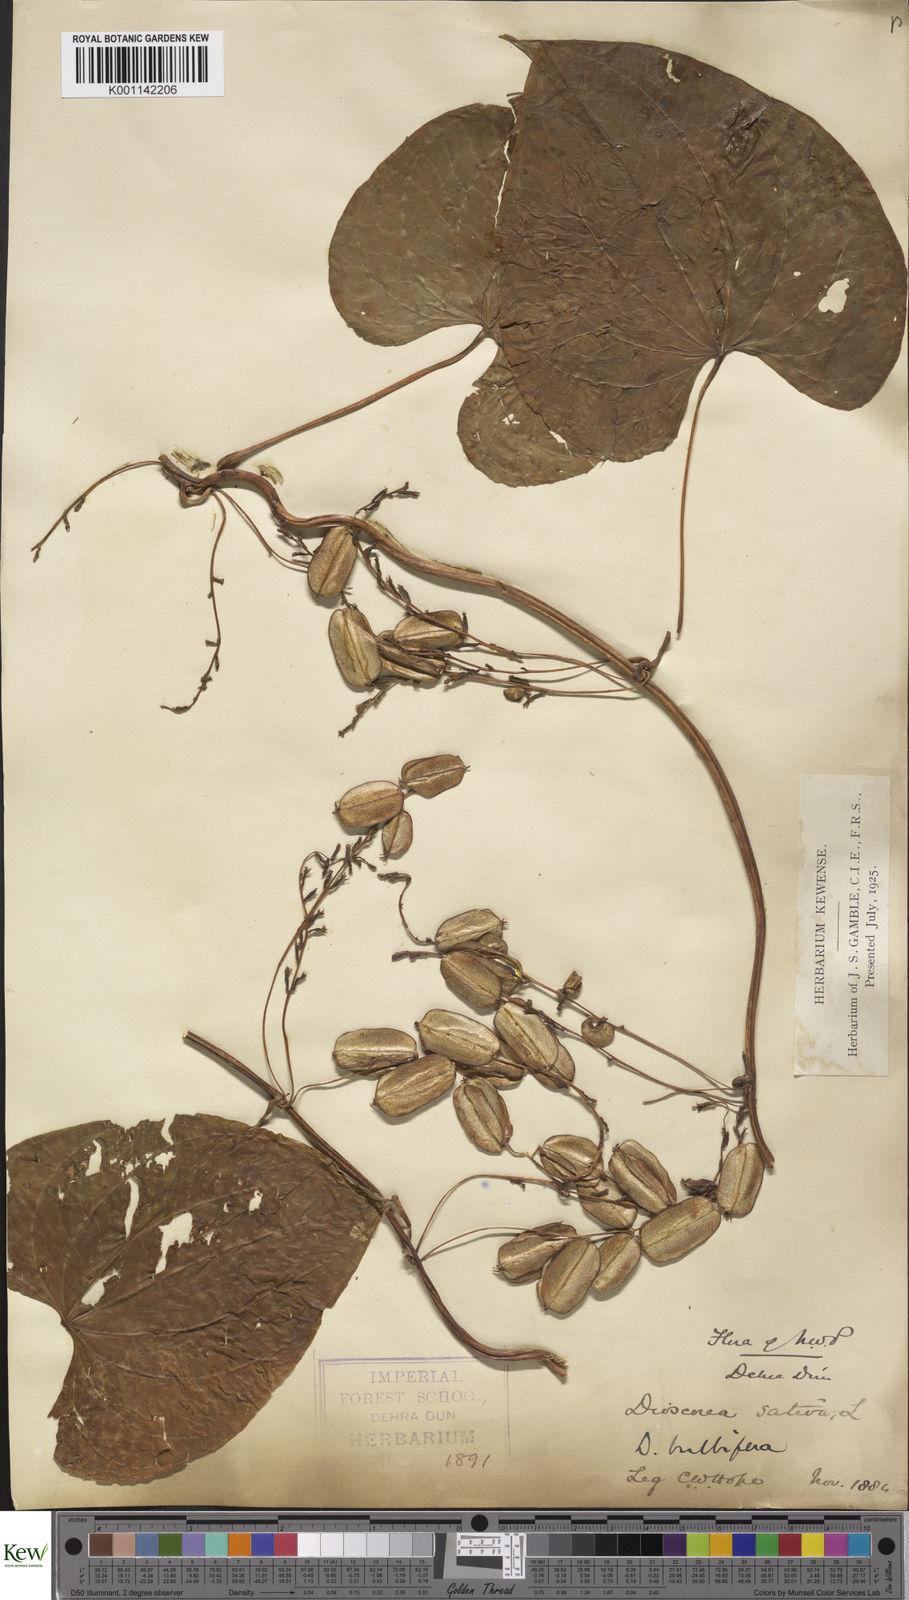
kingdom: Plantae
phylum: Tracheophyta
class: Liliopsida
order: Dioscoreales
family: Dioscoreaceae
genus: Dioscorea
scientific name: Dioscorea bulbifera
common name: Air yam
